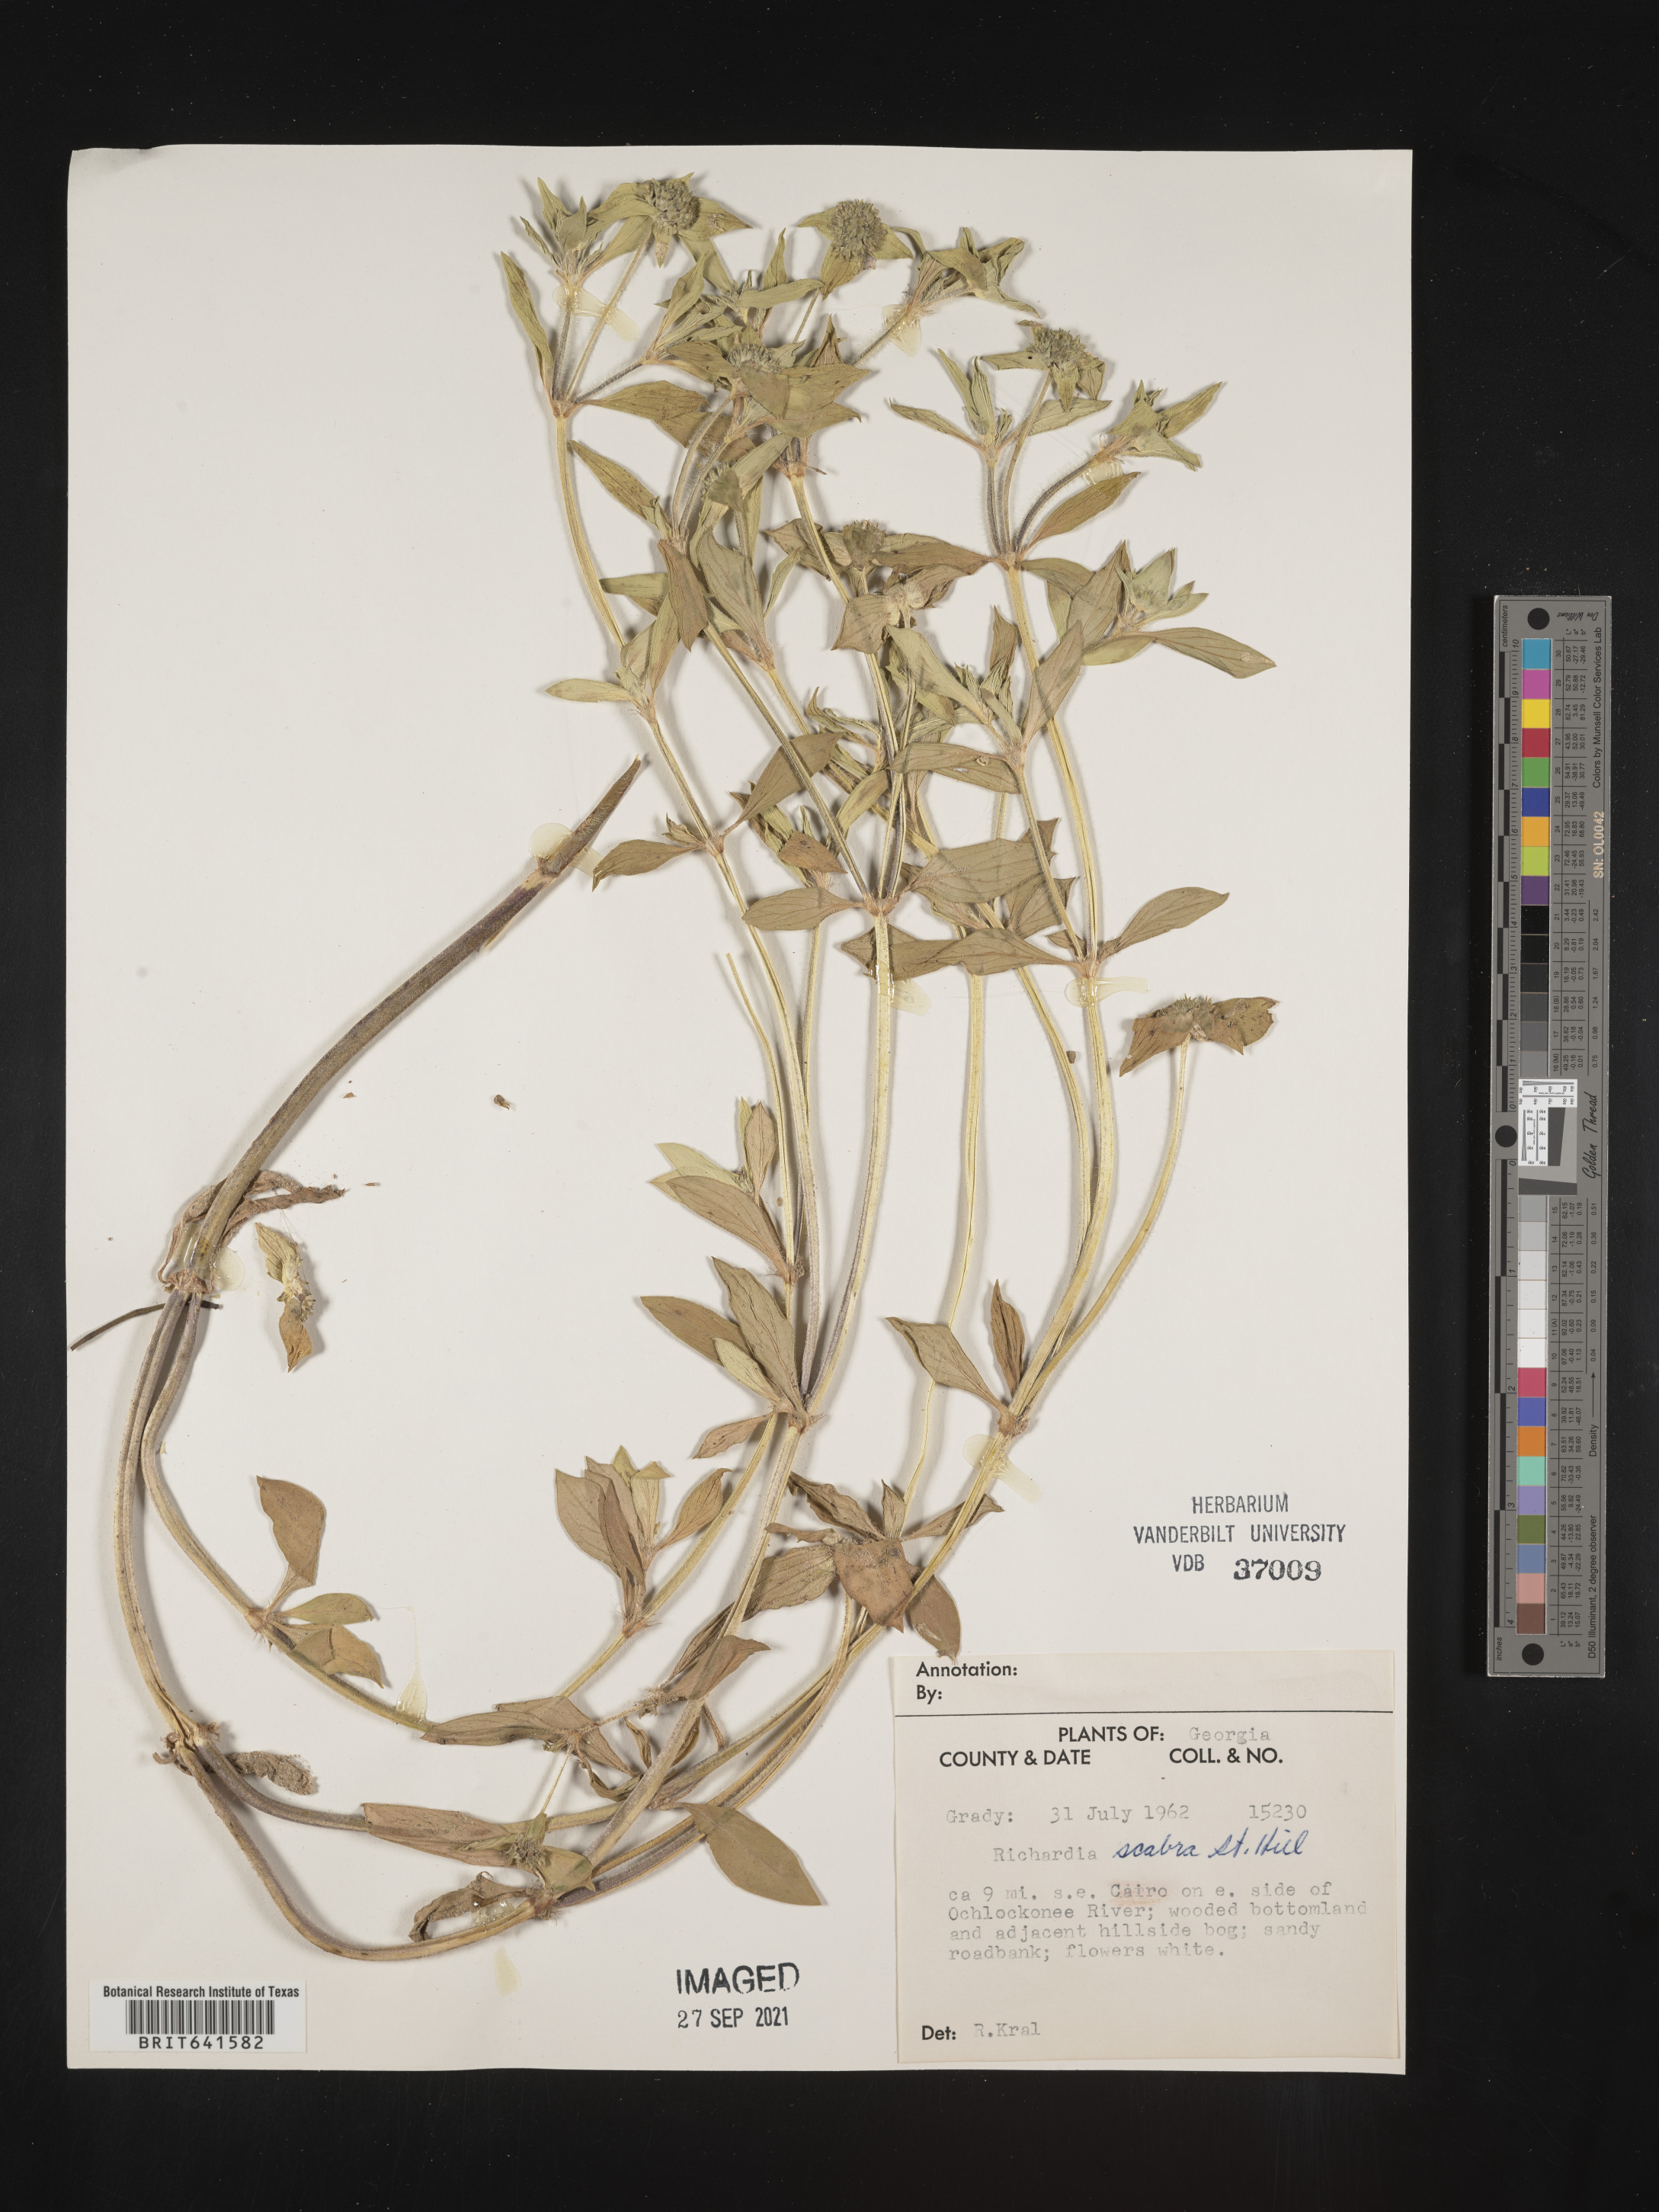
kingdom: Plantae
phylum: Tracheophyta
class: Magnoliopsida
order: Gentianales
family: Rubiaceae
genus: Richardia
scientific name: Richardia scabra
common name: Rough mexican clover
